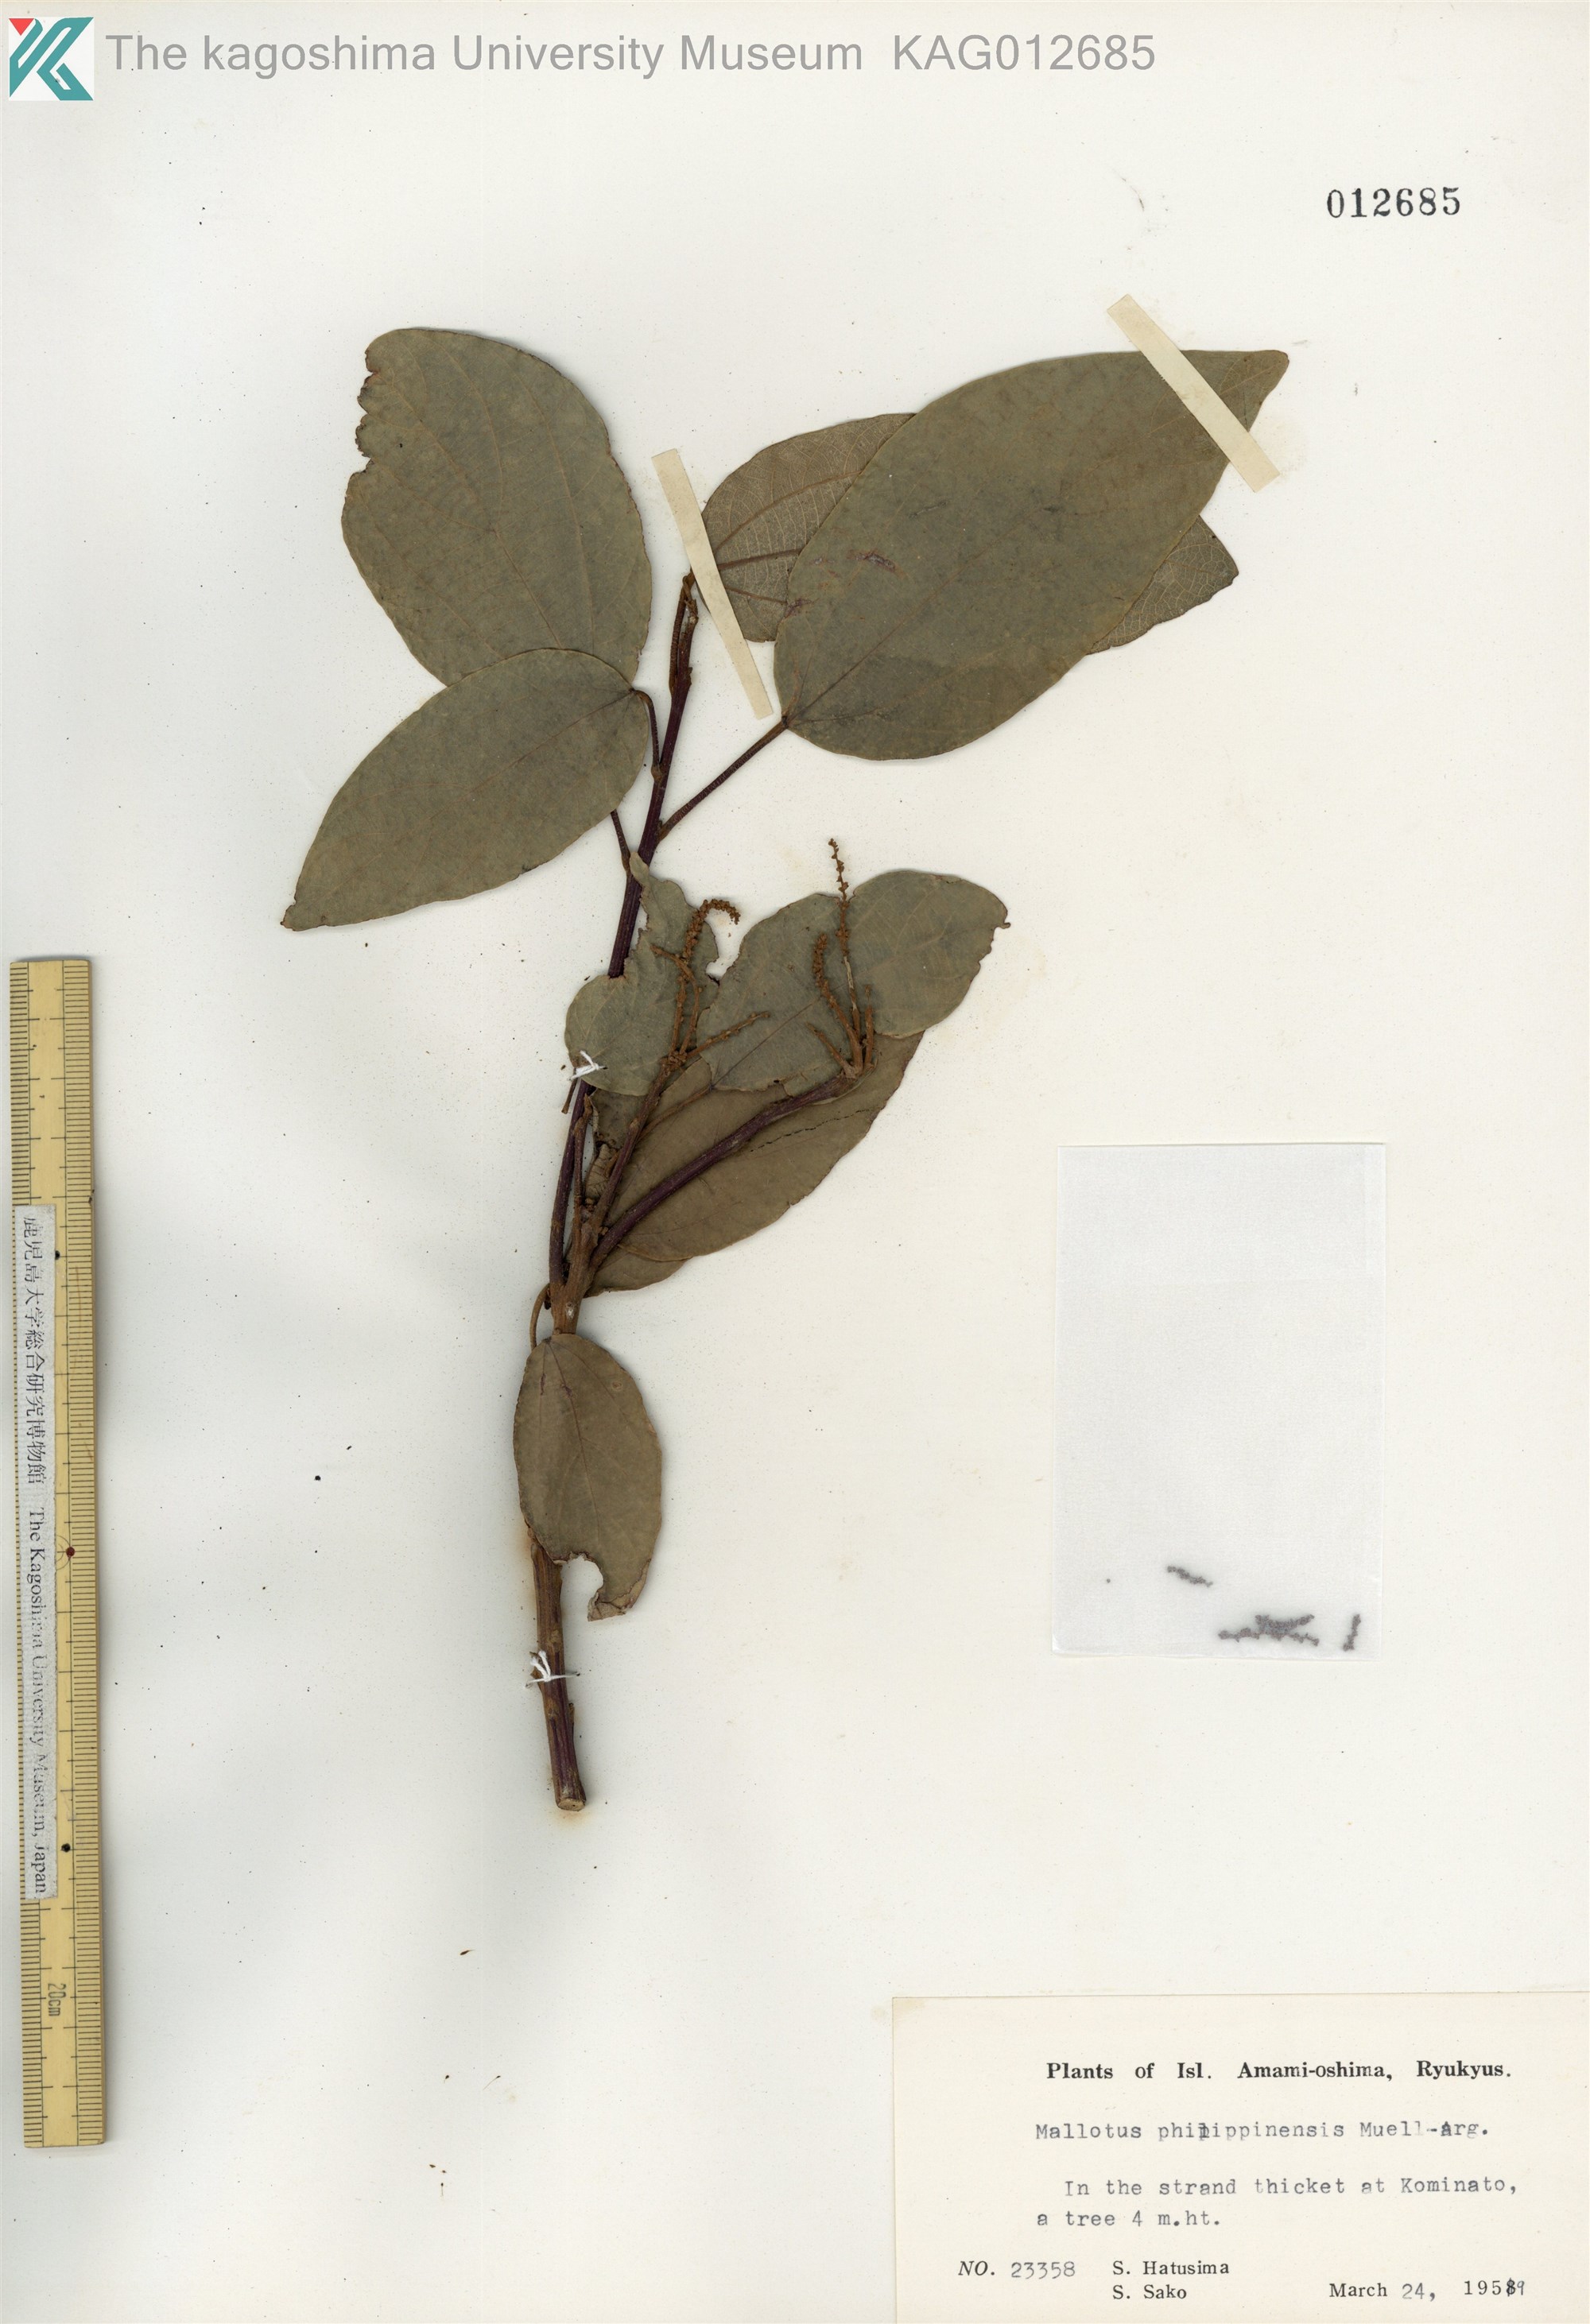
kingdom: Plantae
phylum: Tracheophyta
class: Magnoliopsida
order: Malpighiales
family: Euphorbiaceae
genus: Mallotus
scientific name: Mallotus philippensis
